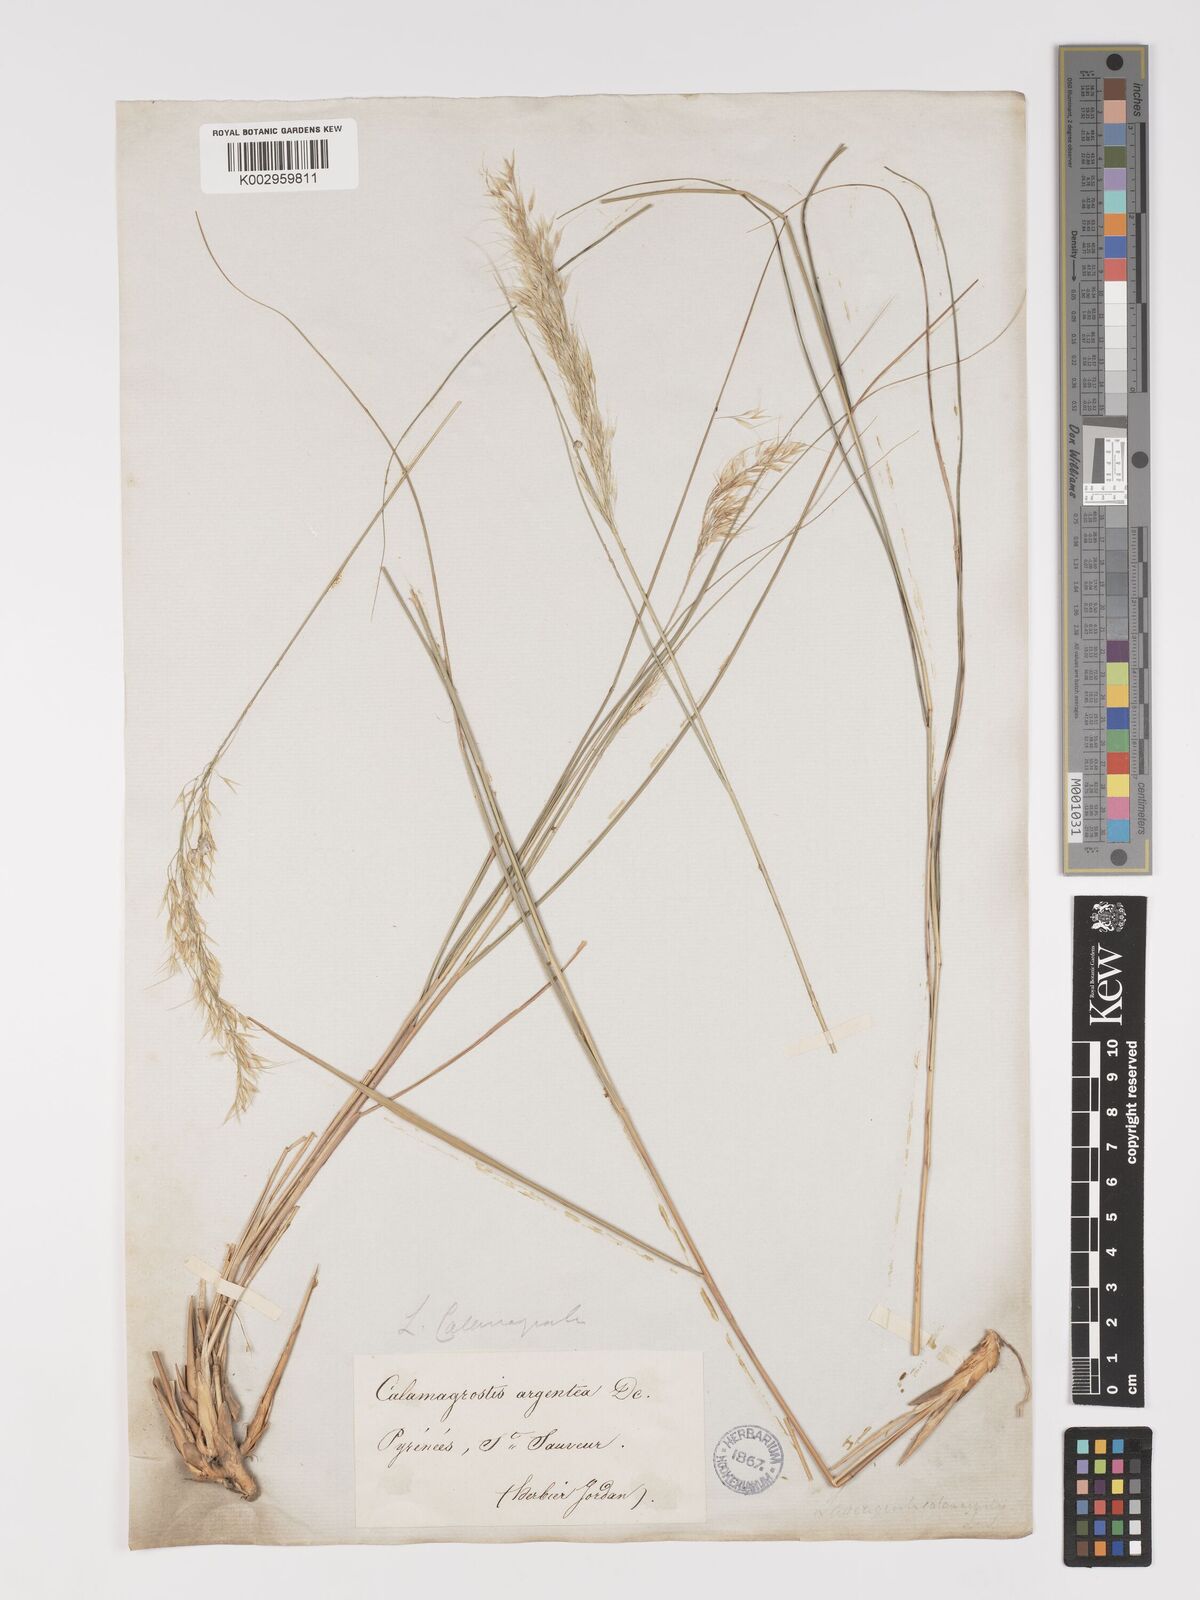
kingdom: Plantae
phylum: Tracheophyta
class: Liliopsida
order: Poales
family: Poaceae
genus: Achnatherum
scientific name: Achnatherum calamagrostis
